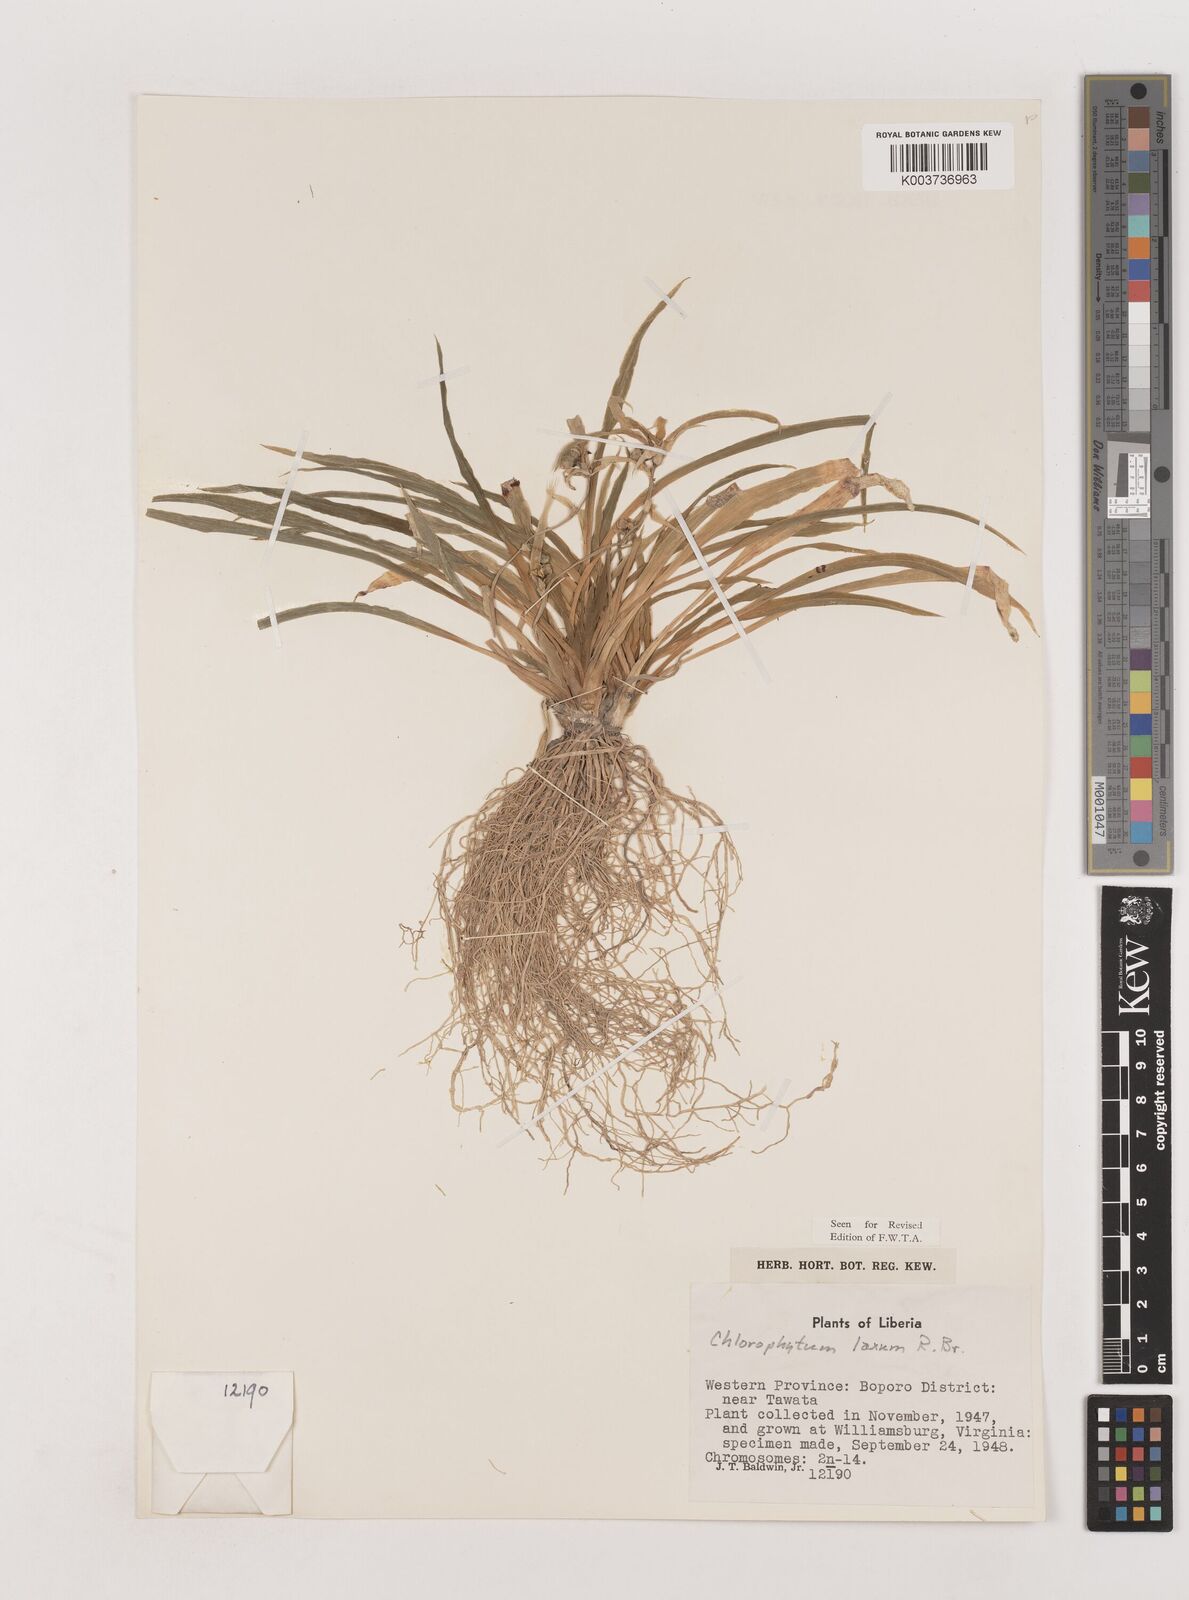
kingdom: Plantae
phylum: Tracheophyta
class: Liliopsida
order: Asparagales
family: Asparagaceae
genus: Chlorophytum
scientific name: Chlorophytum laxum
